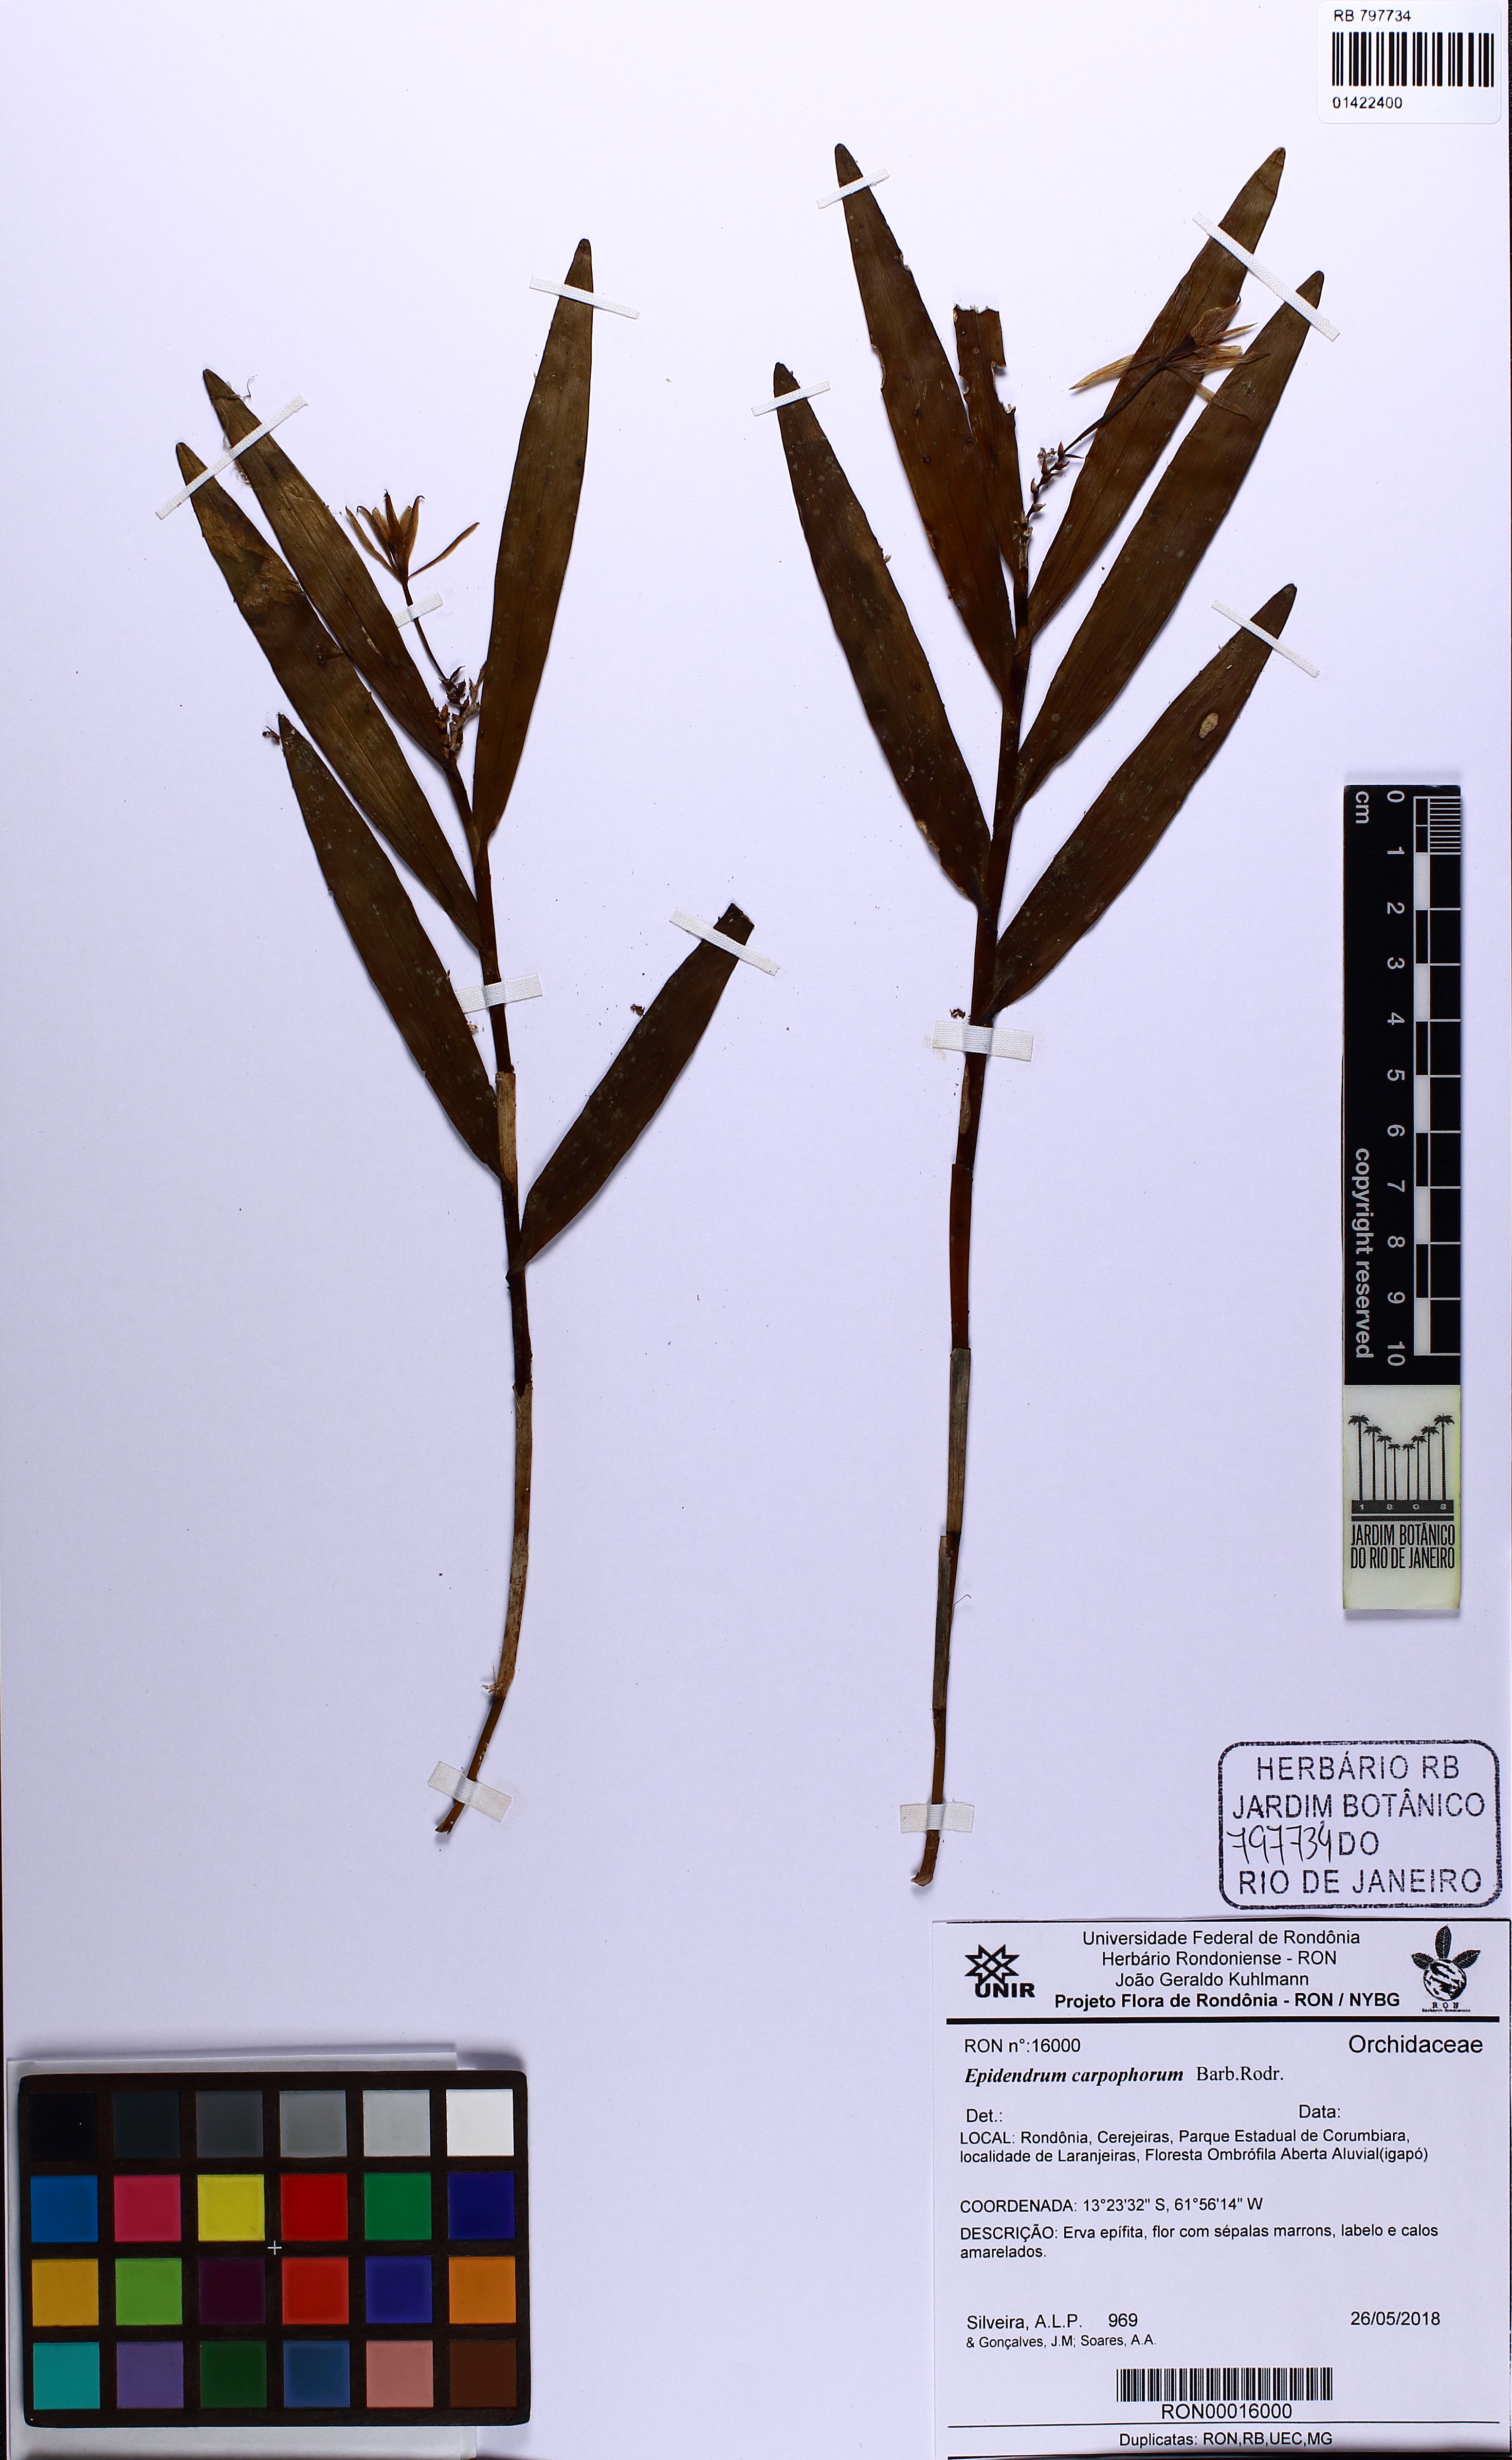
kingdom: Plantae
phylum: Tracheophyta
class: Liliopsida
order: Asparagales
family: Orchidaceae
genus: Epidendrum
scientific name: Epidendrum carpophorum
